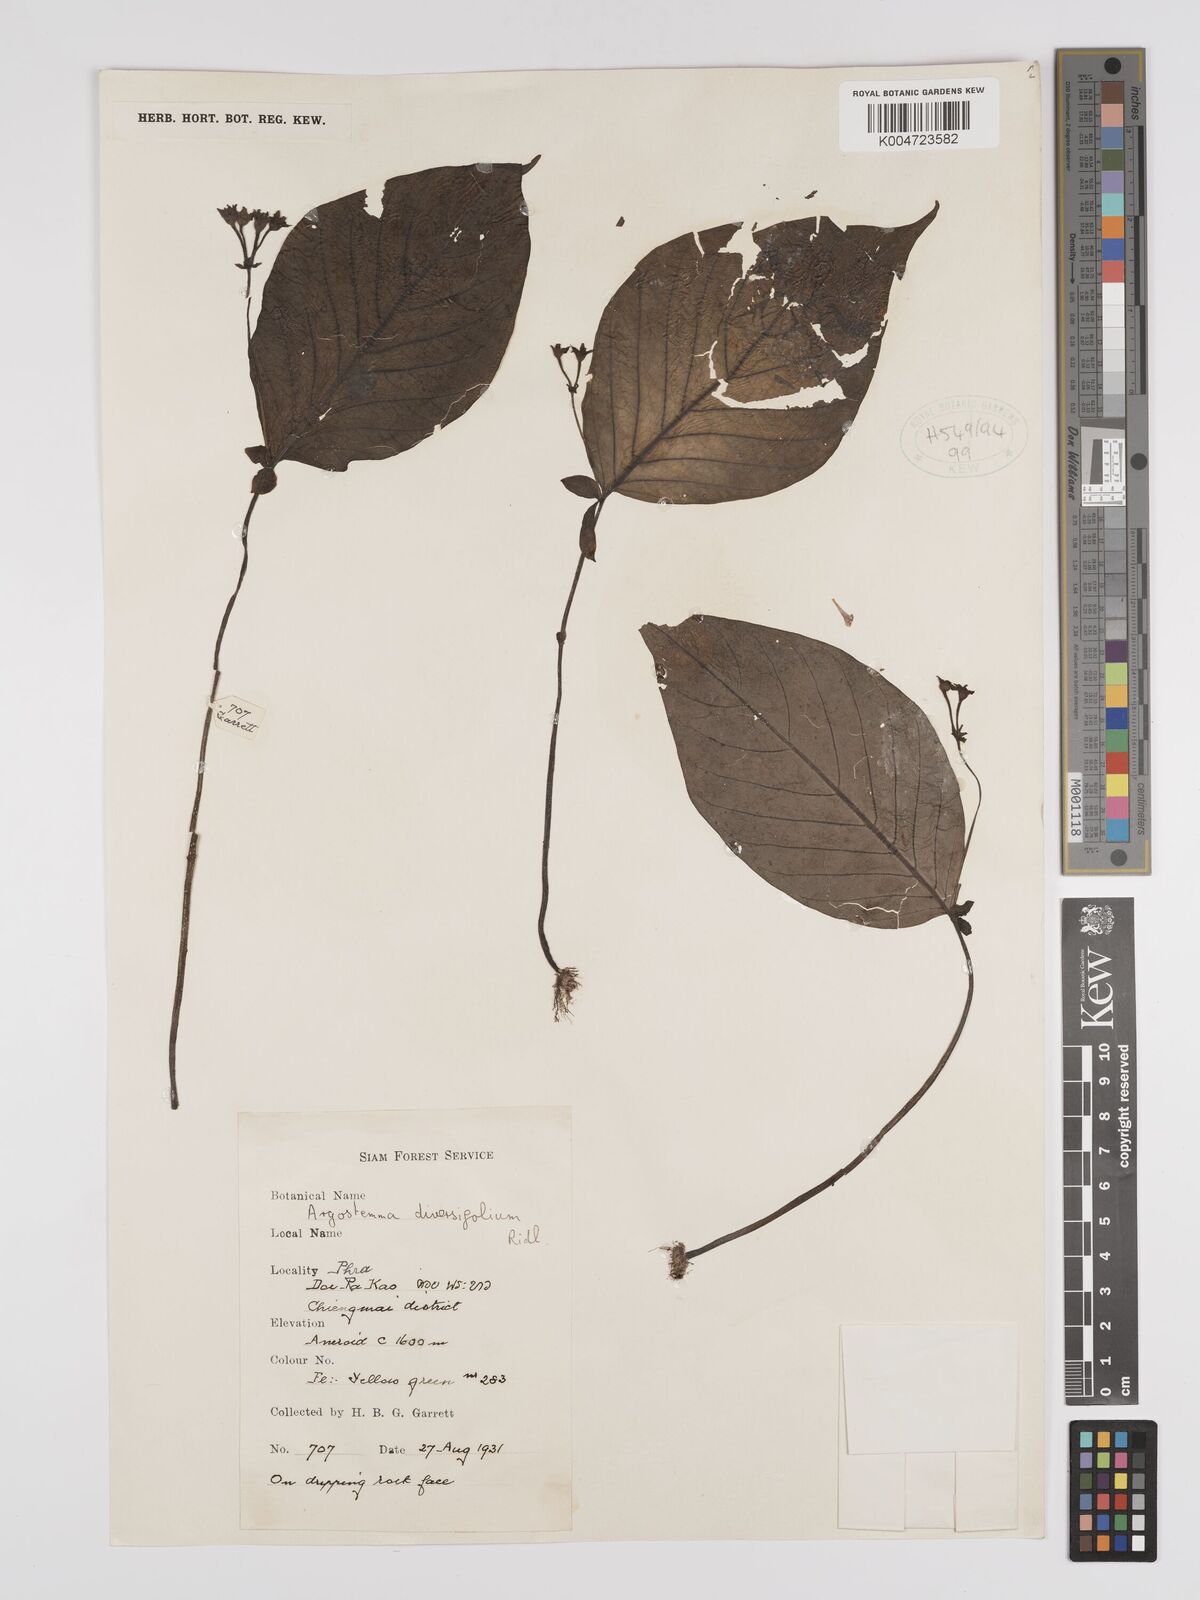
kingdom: Plantae
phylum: Tracheophyta
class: Magnoliopsida
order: Gentianales
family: Rubiaceae
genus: Argostemma
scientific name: Argostemma diversifolium
